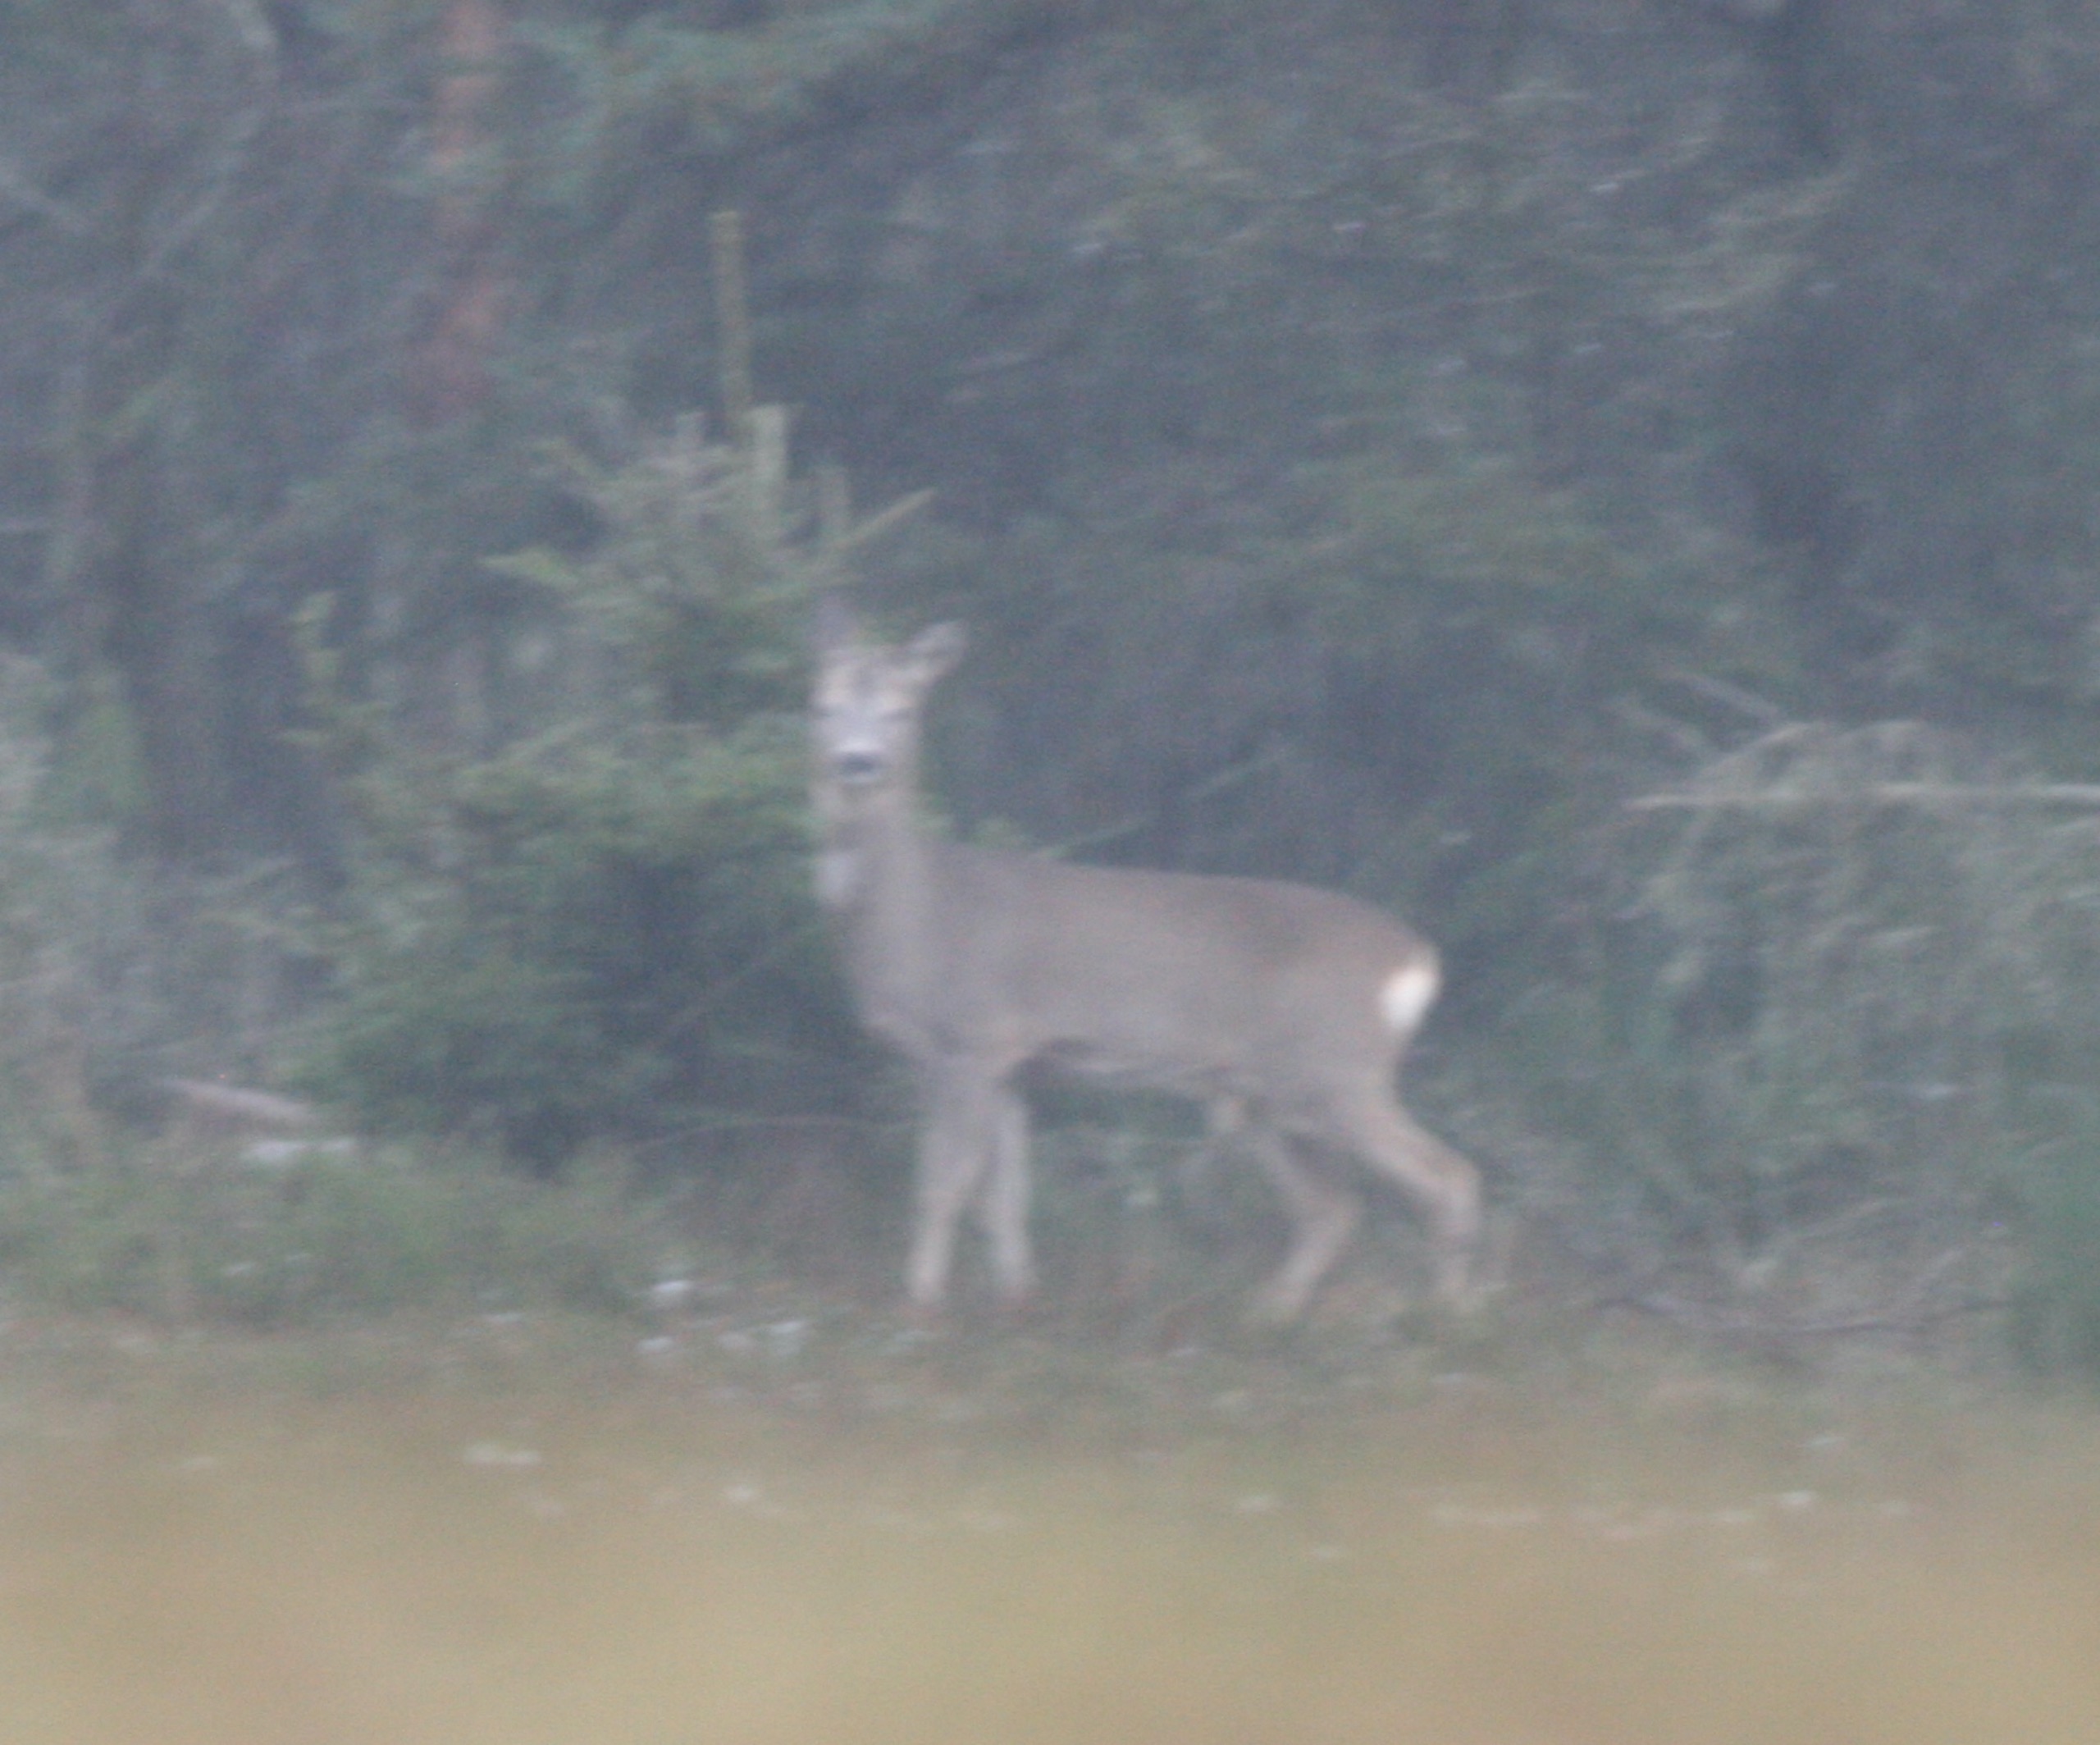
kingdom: Animalia
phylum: Chordata
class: Mammalia
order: Artiodactyla
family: Cervidae
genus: Capreolus
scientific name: Capreolus capreolus
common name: Rådyr
